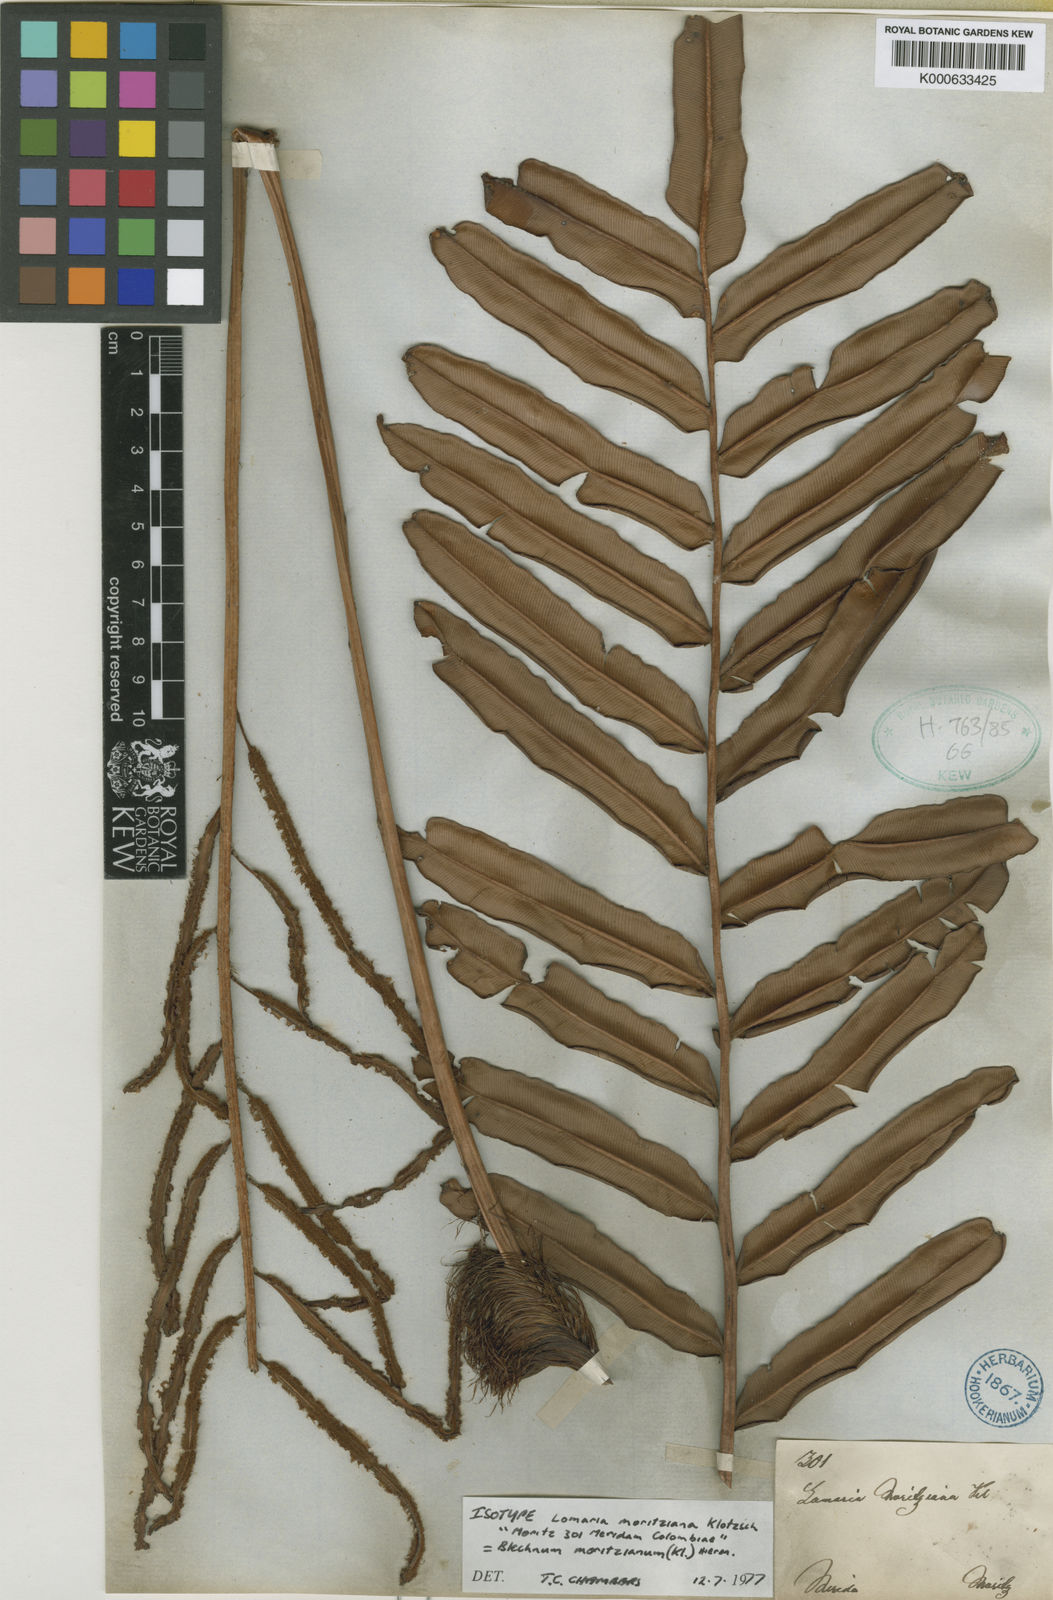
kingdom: Plantae
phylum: Tracheophyta
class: Polypodiopsida
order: Polypodiales
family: Blechnaceae
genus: Lomariocycas
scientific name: Lomariocycas moritziana
